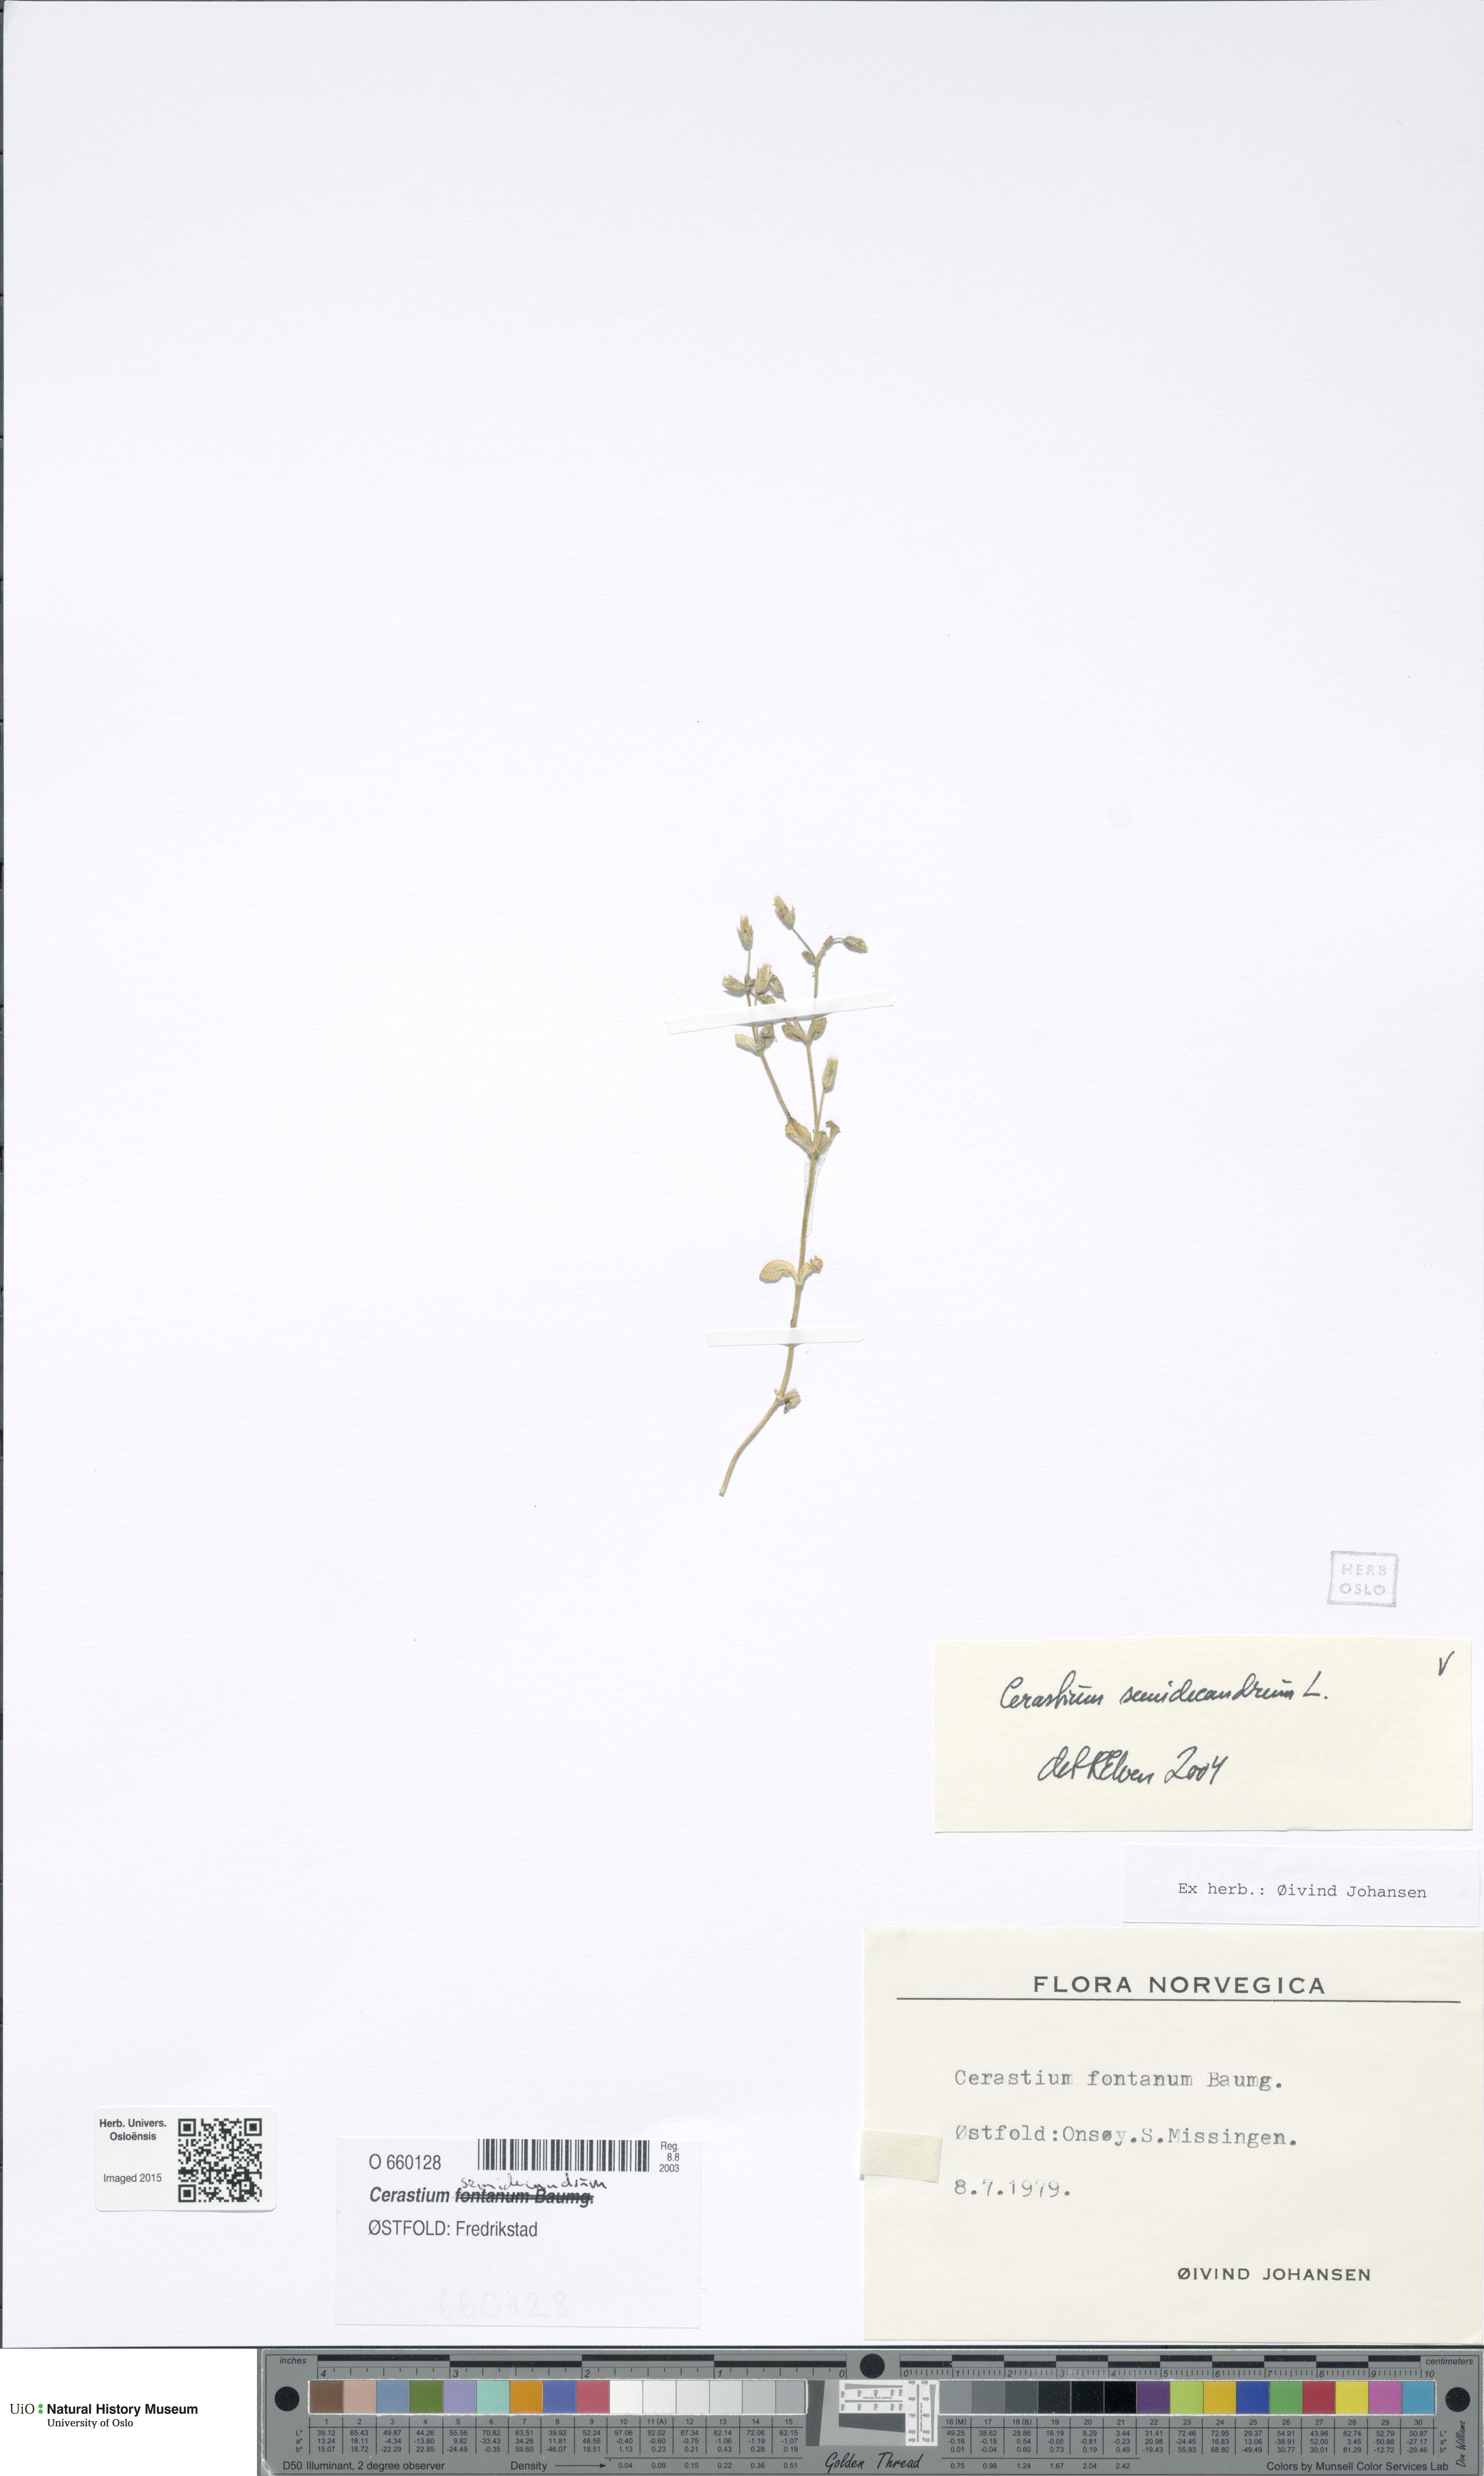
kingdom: Plantae
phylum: Tracheophyta
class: Magnoliopsida
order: Caryophyllales
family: Caryophyllaceae
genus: Cerastium
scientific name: Cerastium semidecandrum
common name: Little mouse-ear
